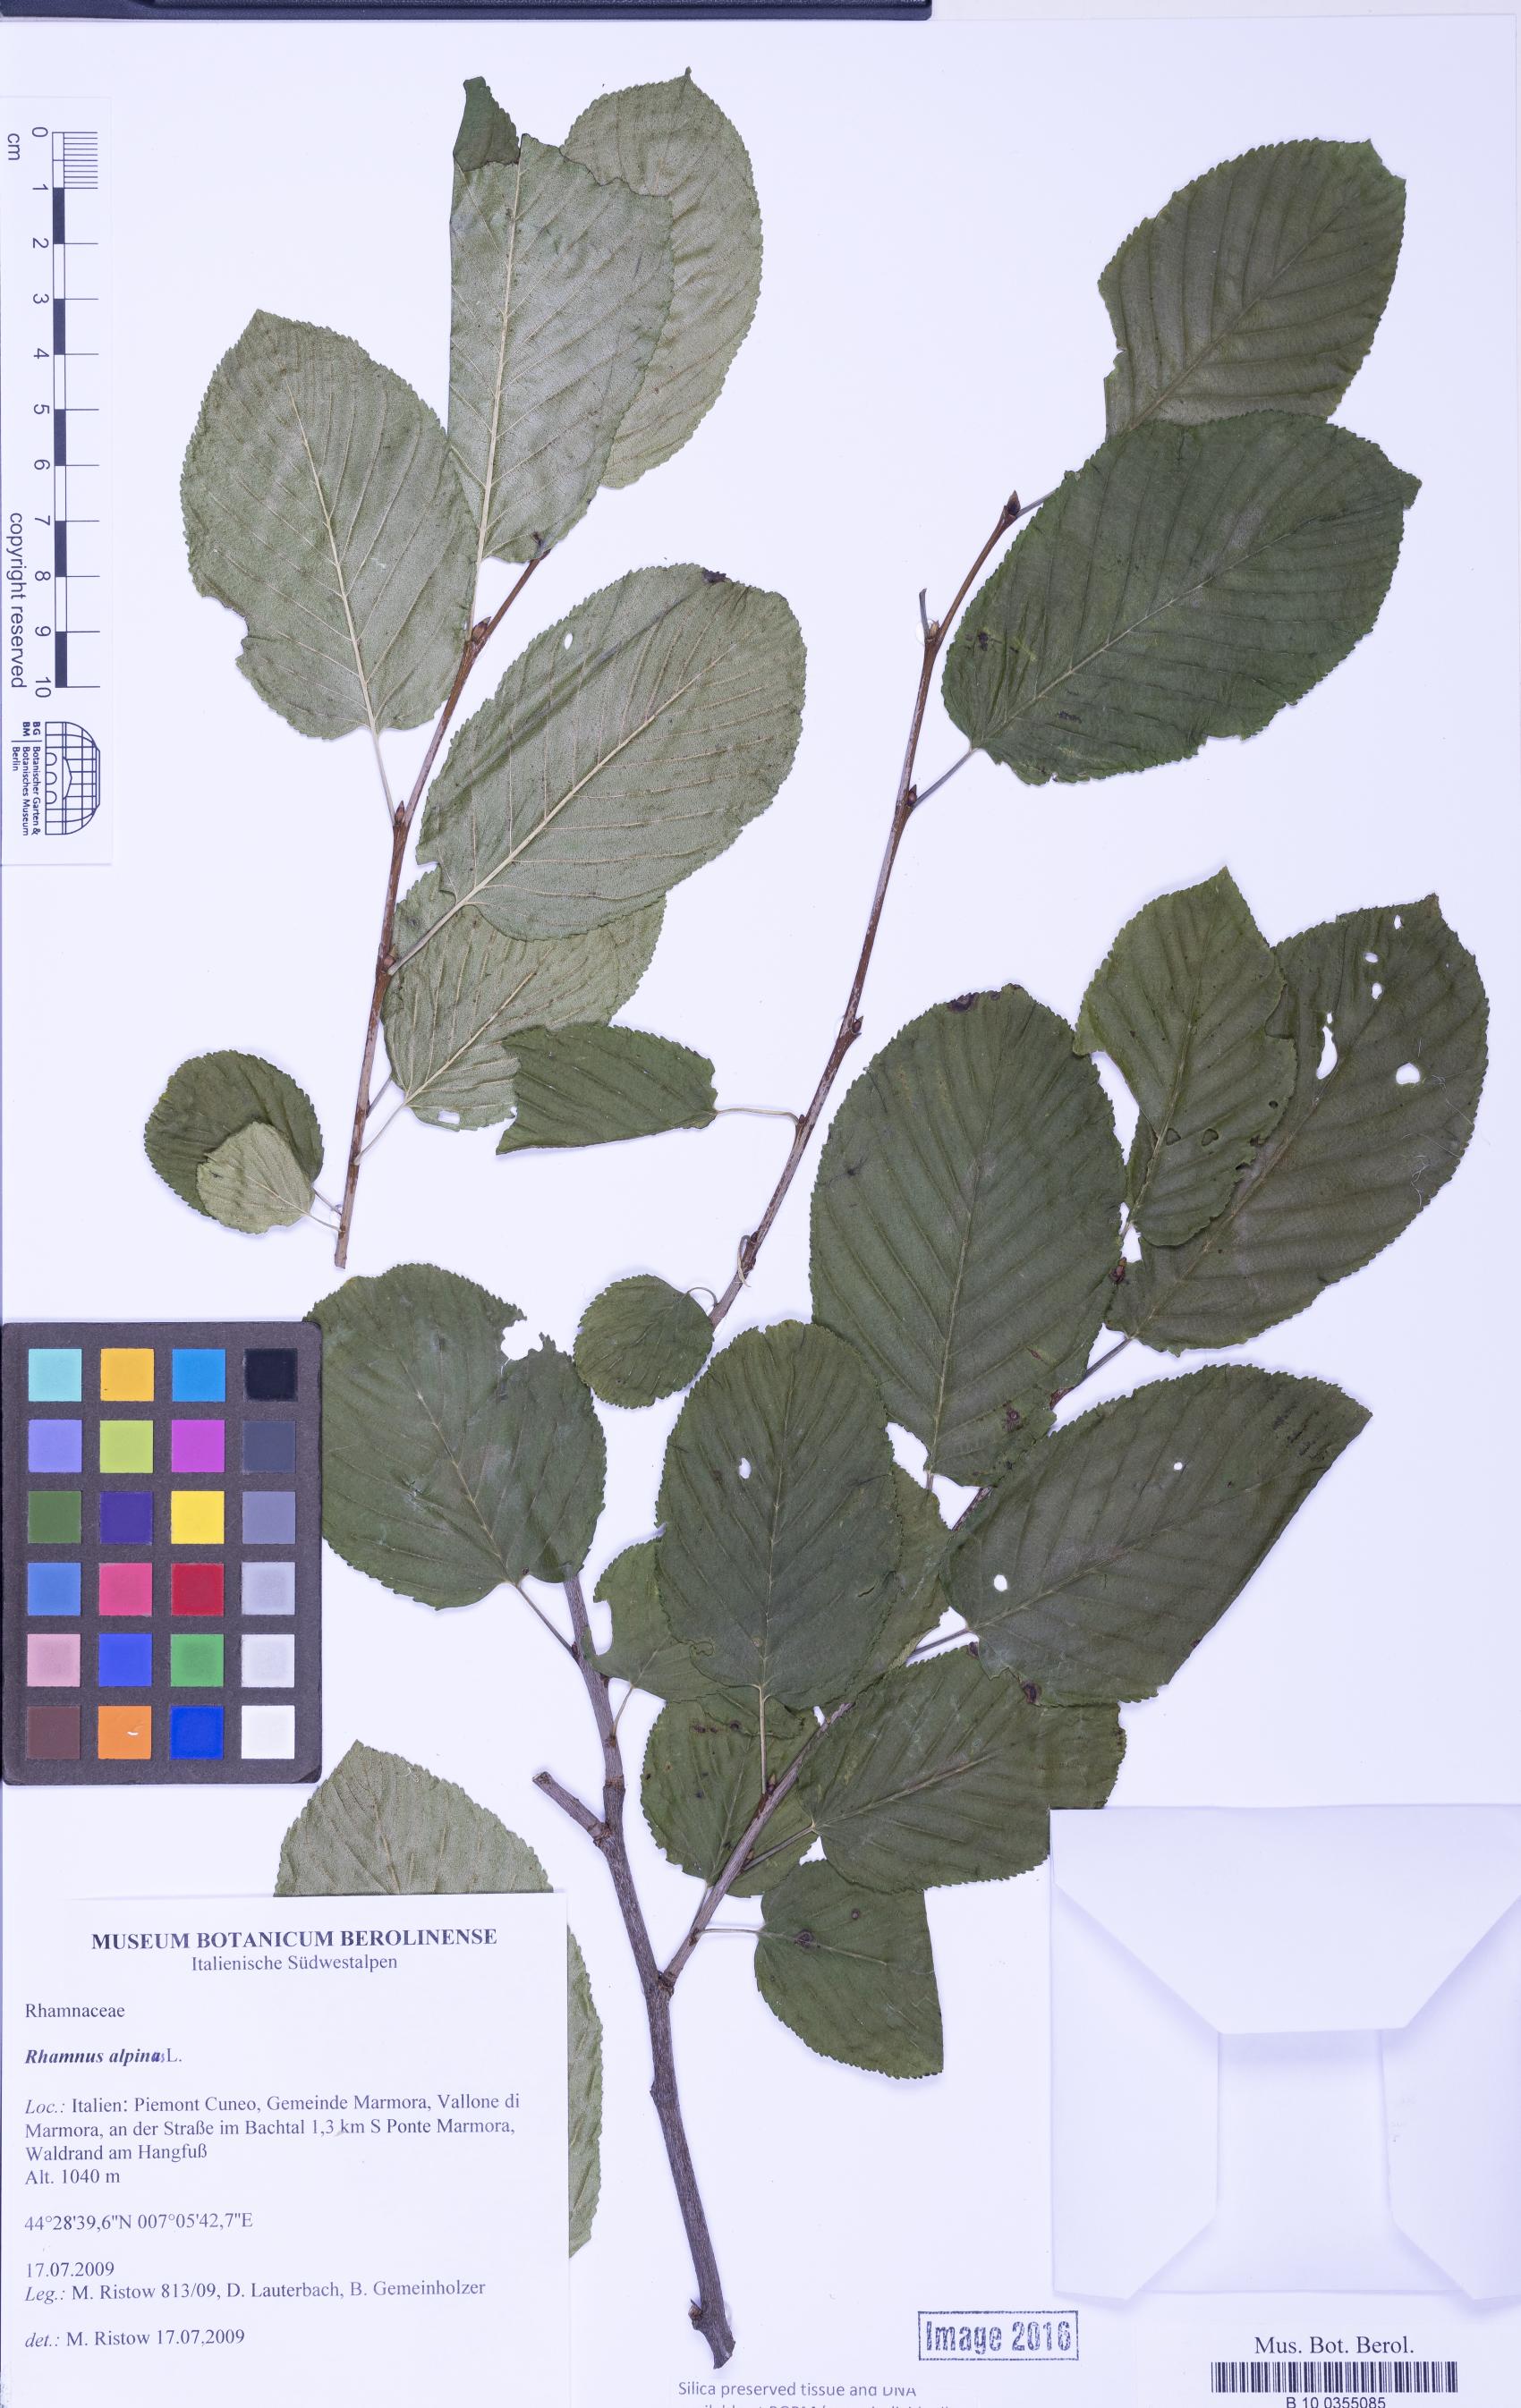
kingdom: Plantae
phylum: Tracheophyta
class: Magnoliopsida
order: Rosales
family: Rhamnaceae
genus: Atadinus
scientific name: Atadinus alpinus
